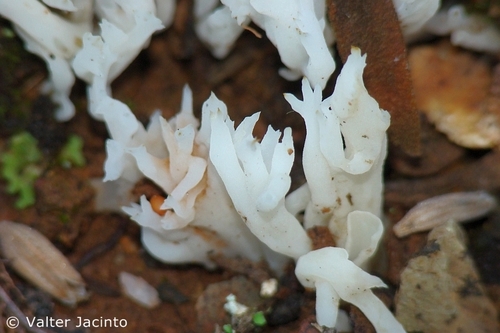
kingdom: Fungi
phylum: Basidiomycota
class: Agaricomycetes
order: Cantharellales
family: Hydnaceae
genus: Clavulina
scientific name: Clavulina coralloides
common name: Crested coral
